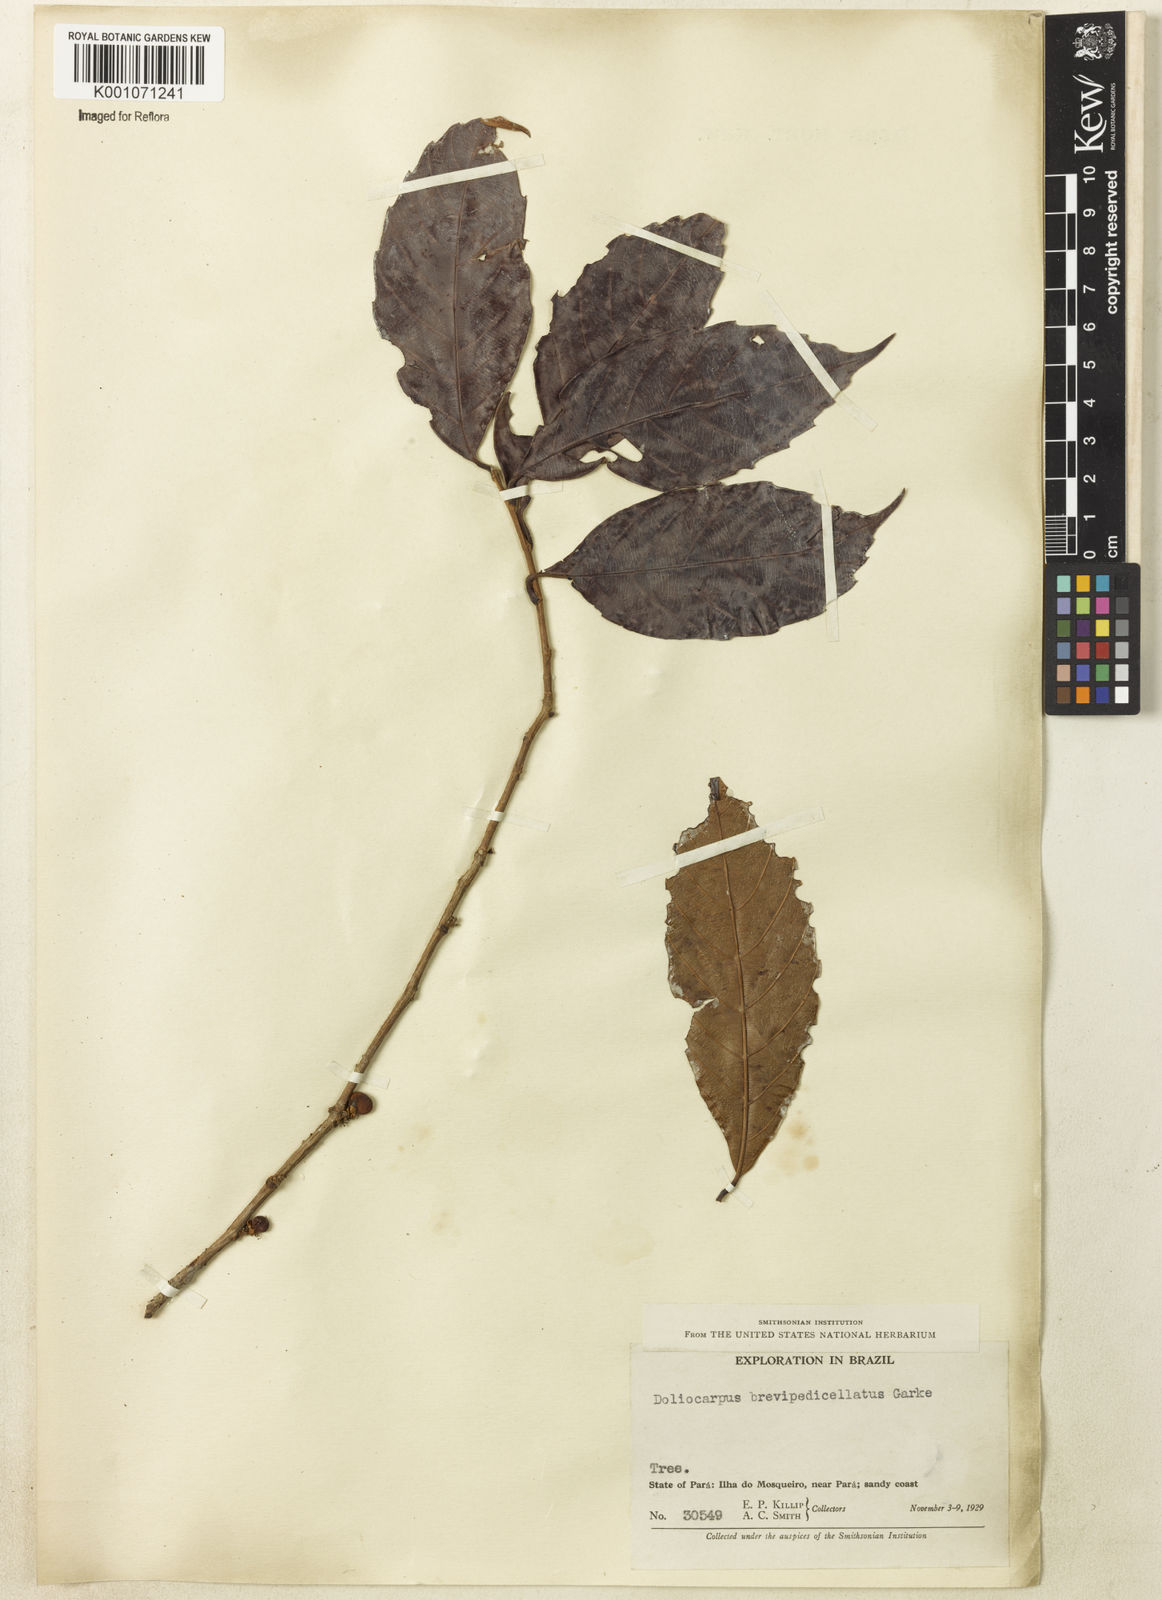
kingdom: Plantae
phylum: Tracheophyta
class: Magnoliopsida
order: Dilleniales
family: Dilleniaceae
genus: Doliocarpus
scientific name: Doliocarpus brevipedicellatus
